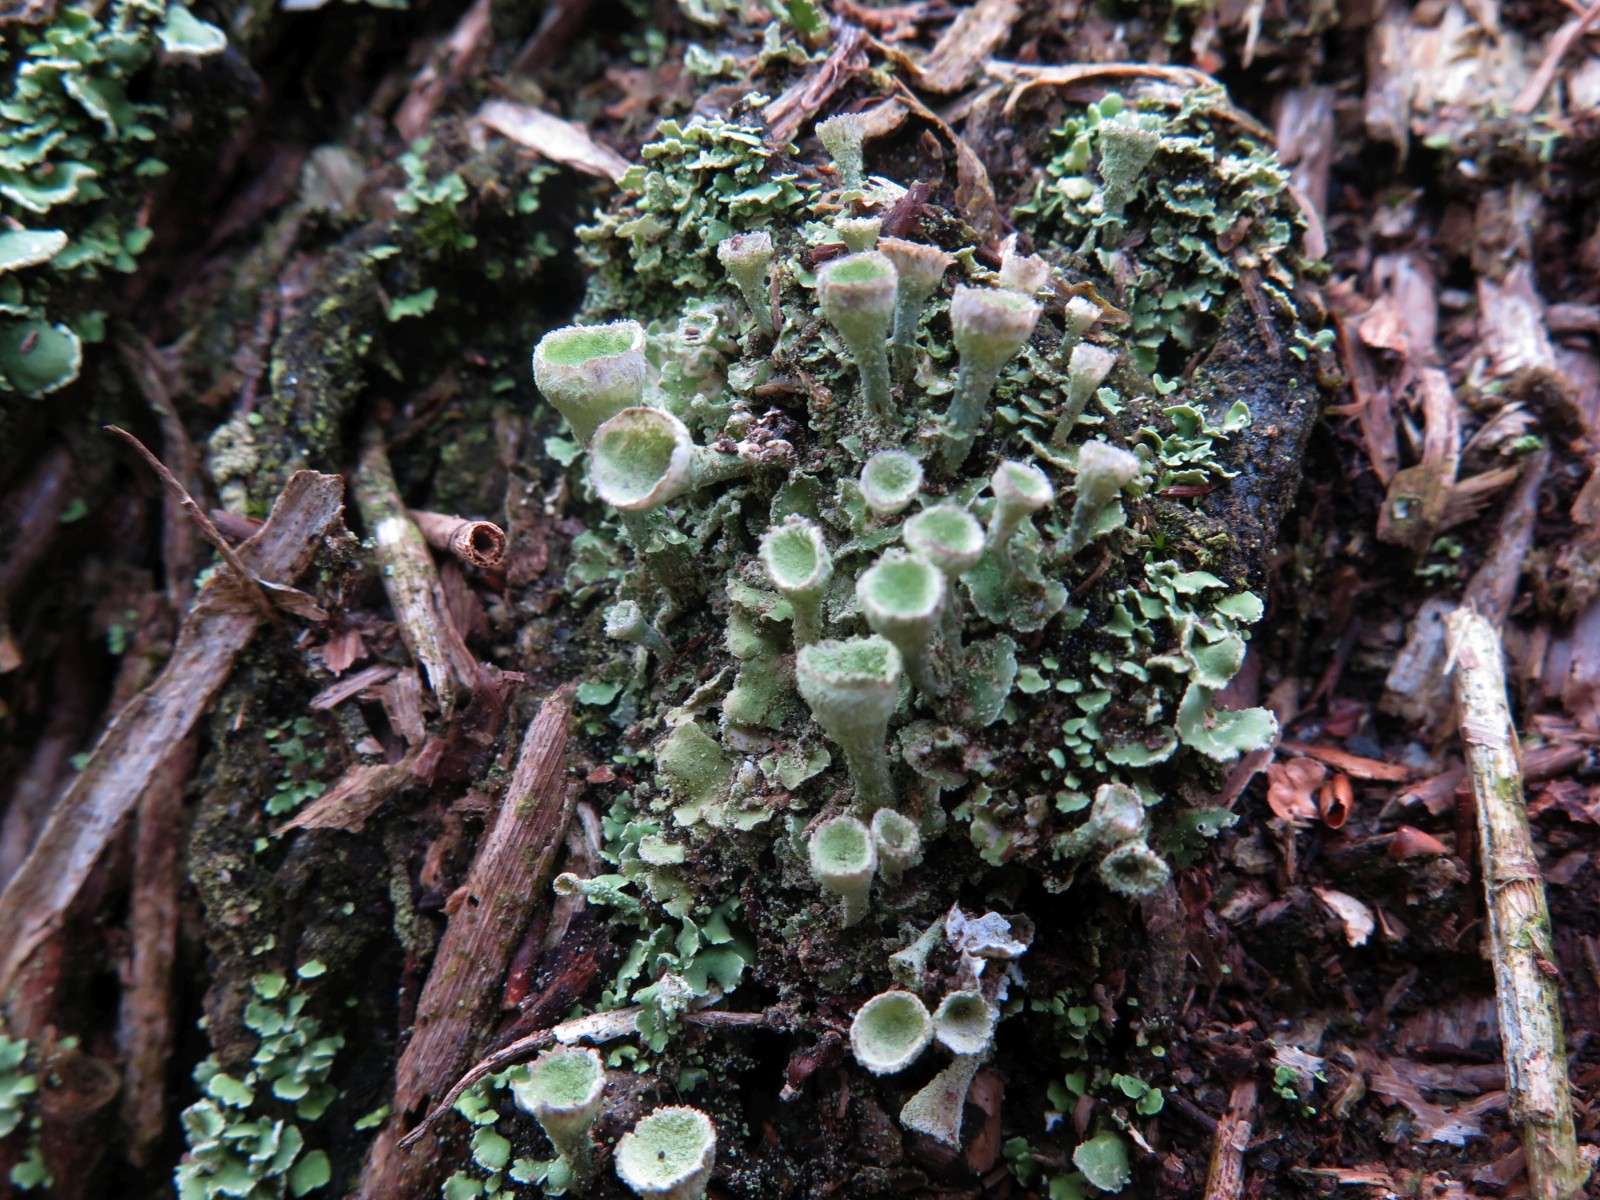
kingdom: Fungi
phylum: Ascomycota
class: Lecanoromycetes
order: Lecanorales
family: Cladoniaceae
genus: Cladonia
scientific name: Cladonia humilis
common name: lav bægerlav
